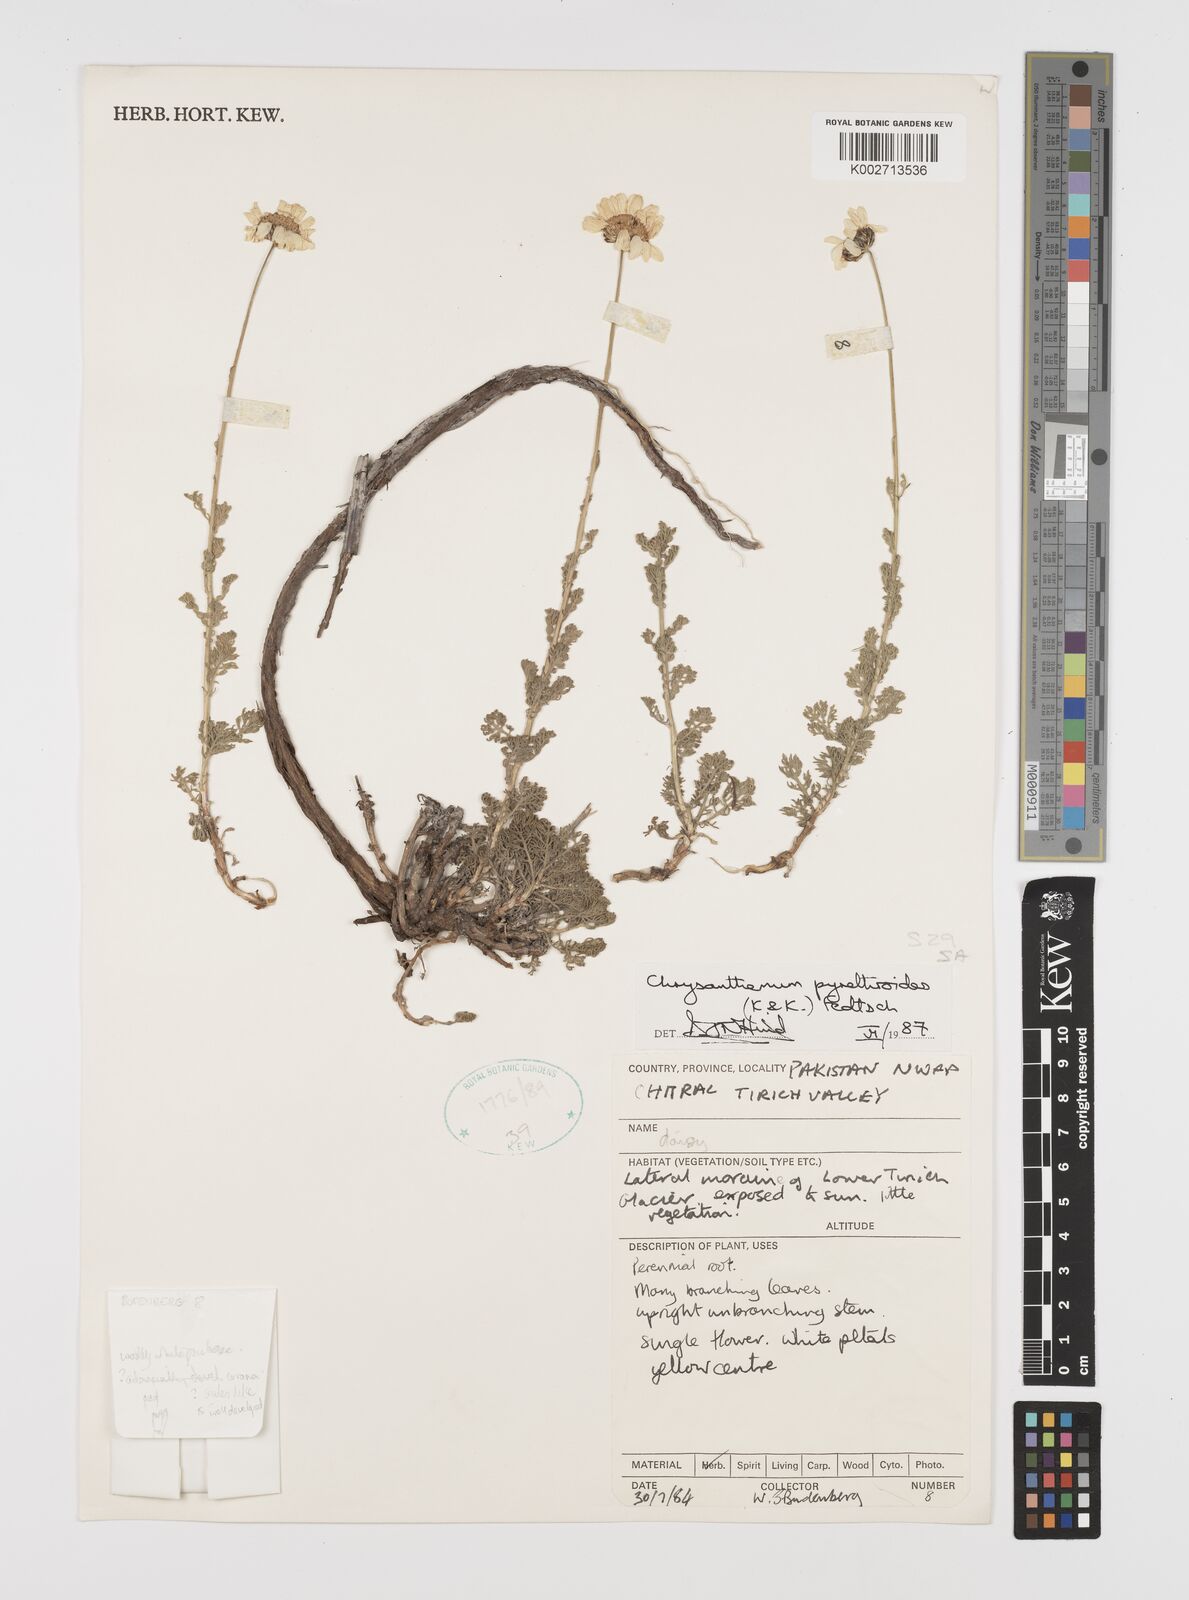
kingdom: Plantae
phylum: Tracheophyta
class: Magnoliopsida
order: Asterales
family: Asteraceae
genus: Richteria
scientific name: Richteria pyrethroides
